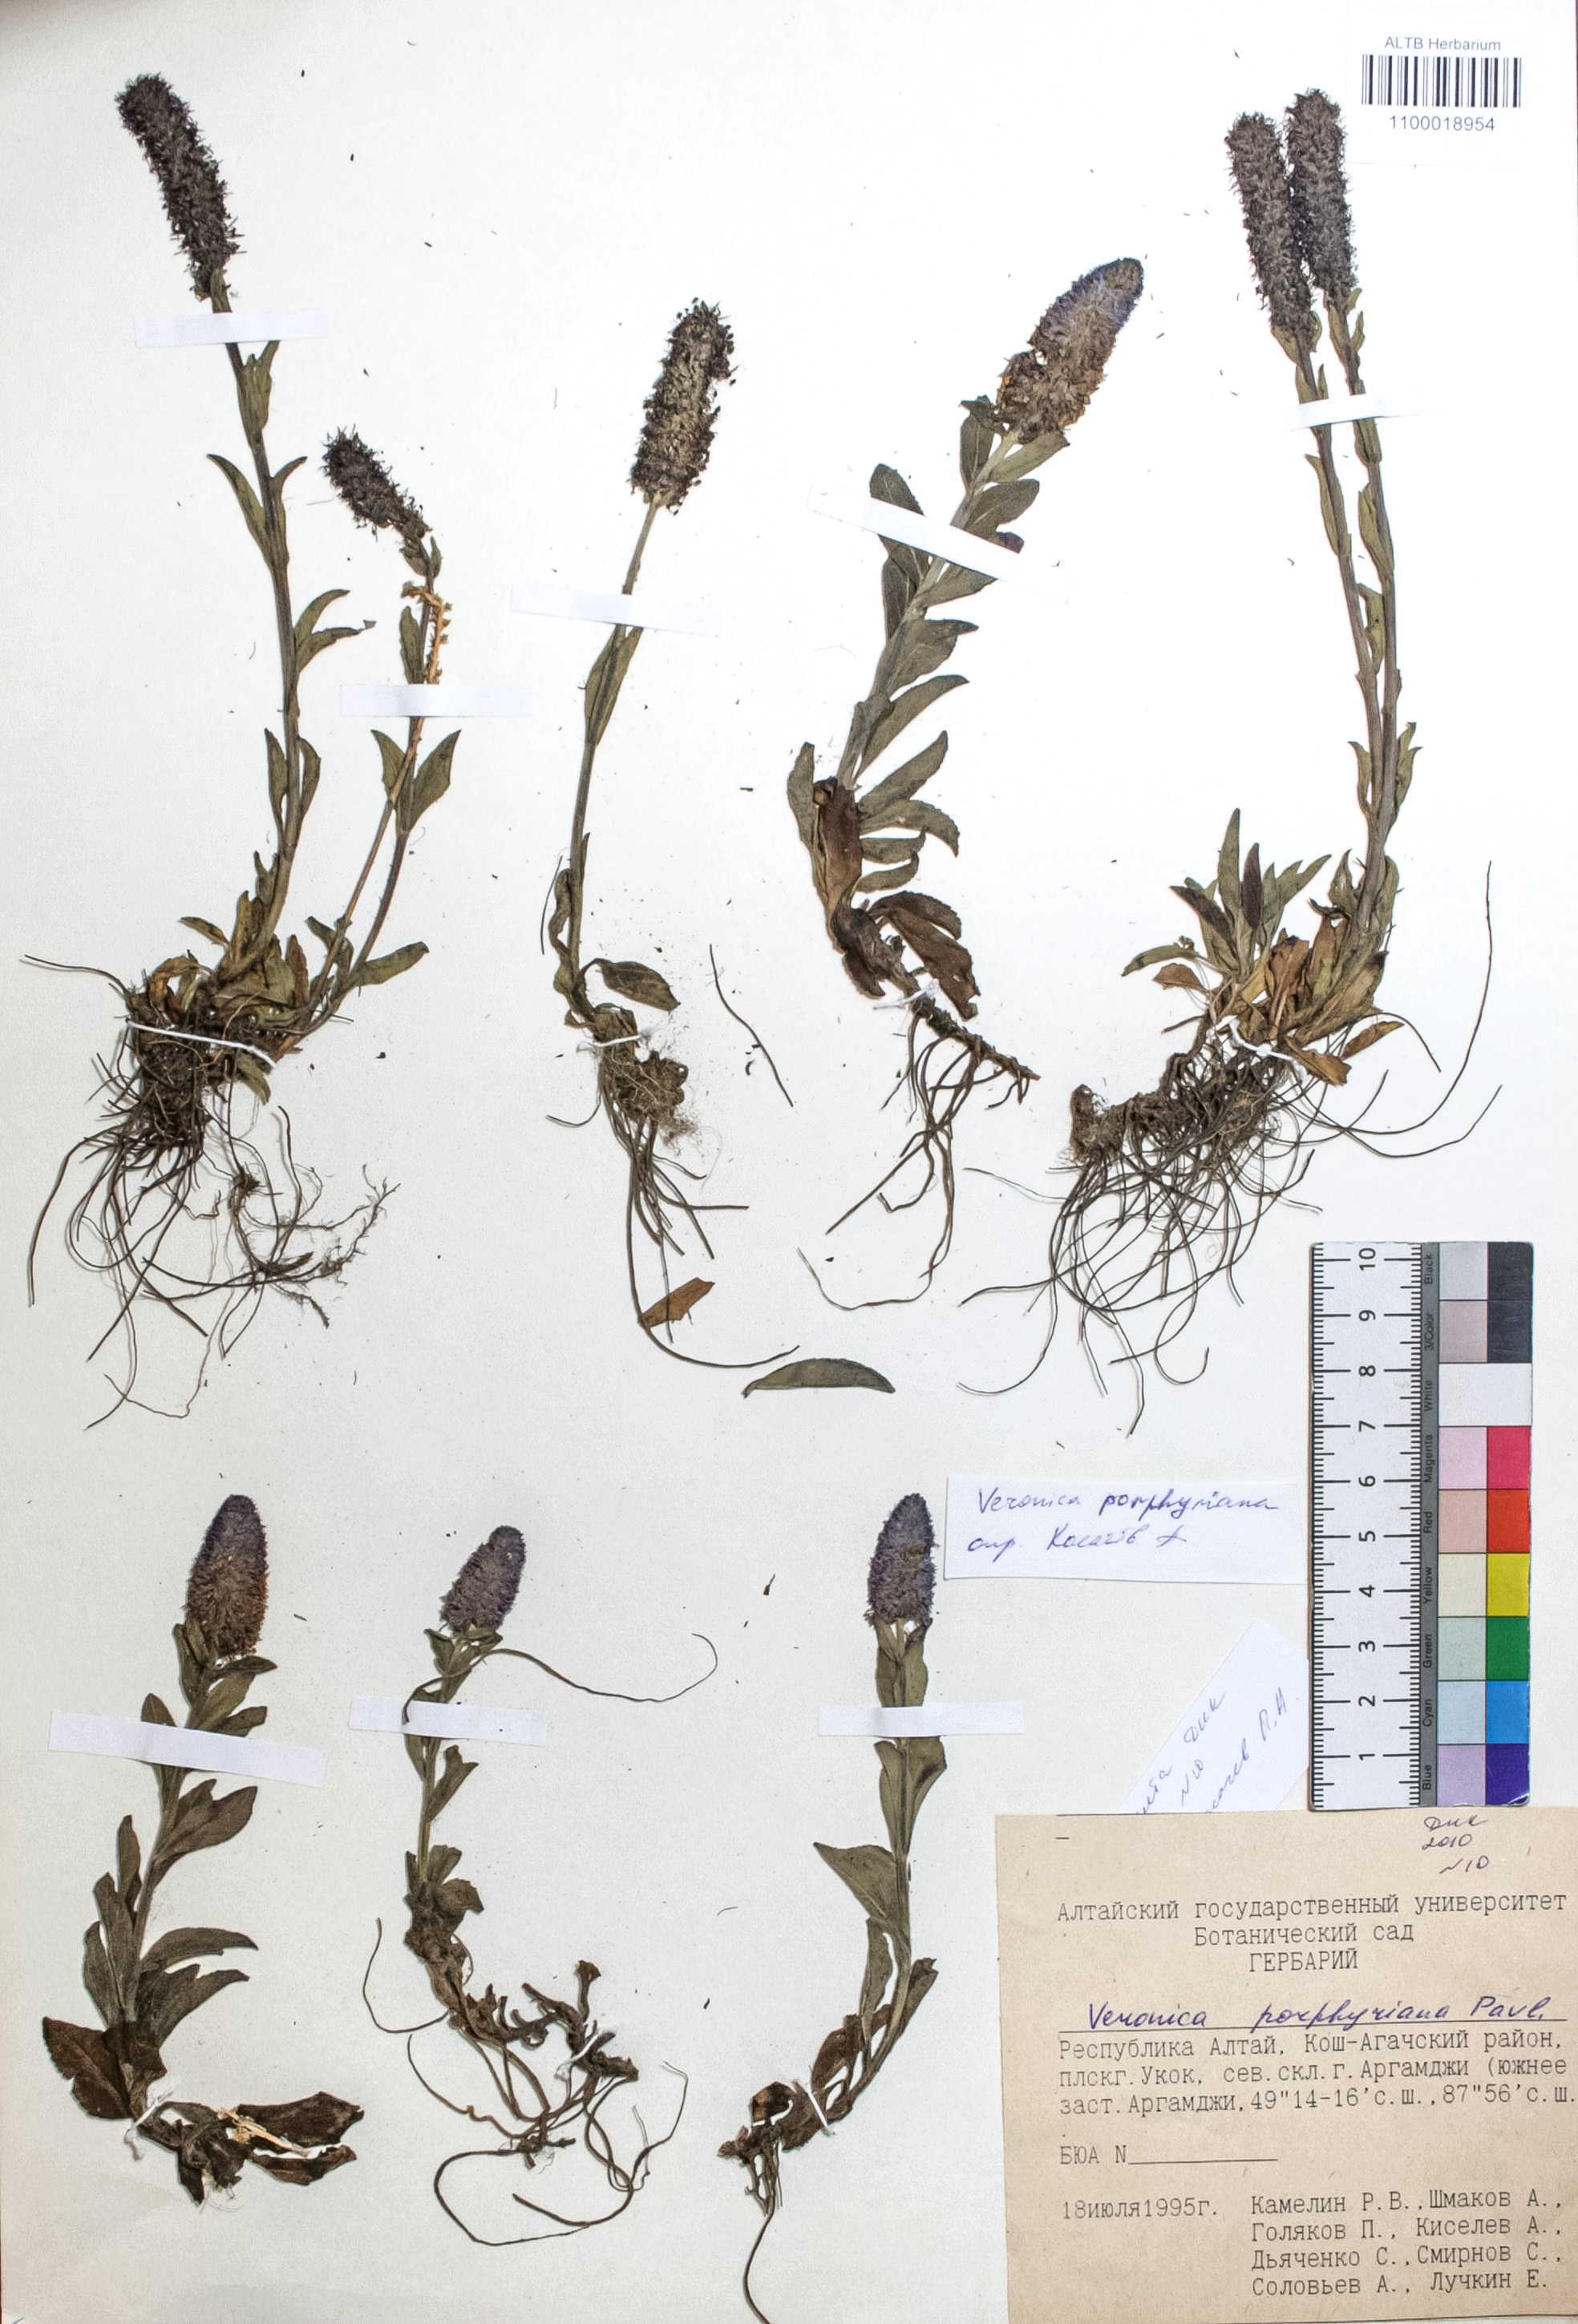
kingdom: Plantae
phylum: Tracheophyta
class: Magnoliopsida
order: Lamiales
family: Plantaginaceae
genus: Veronica
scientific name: Veronica porphyriana
